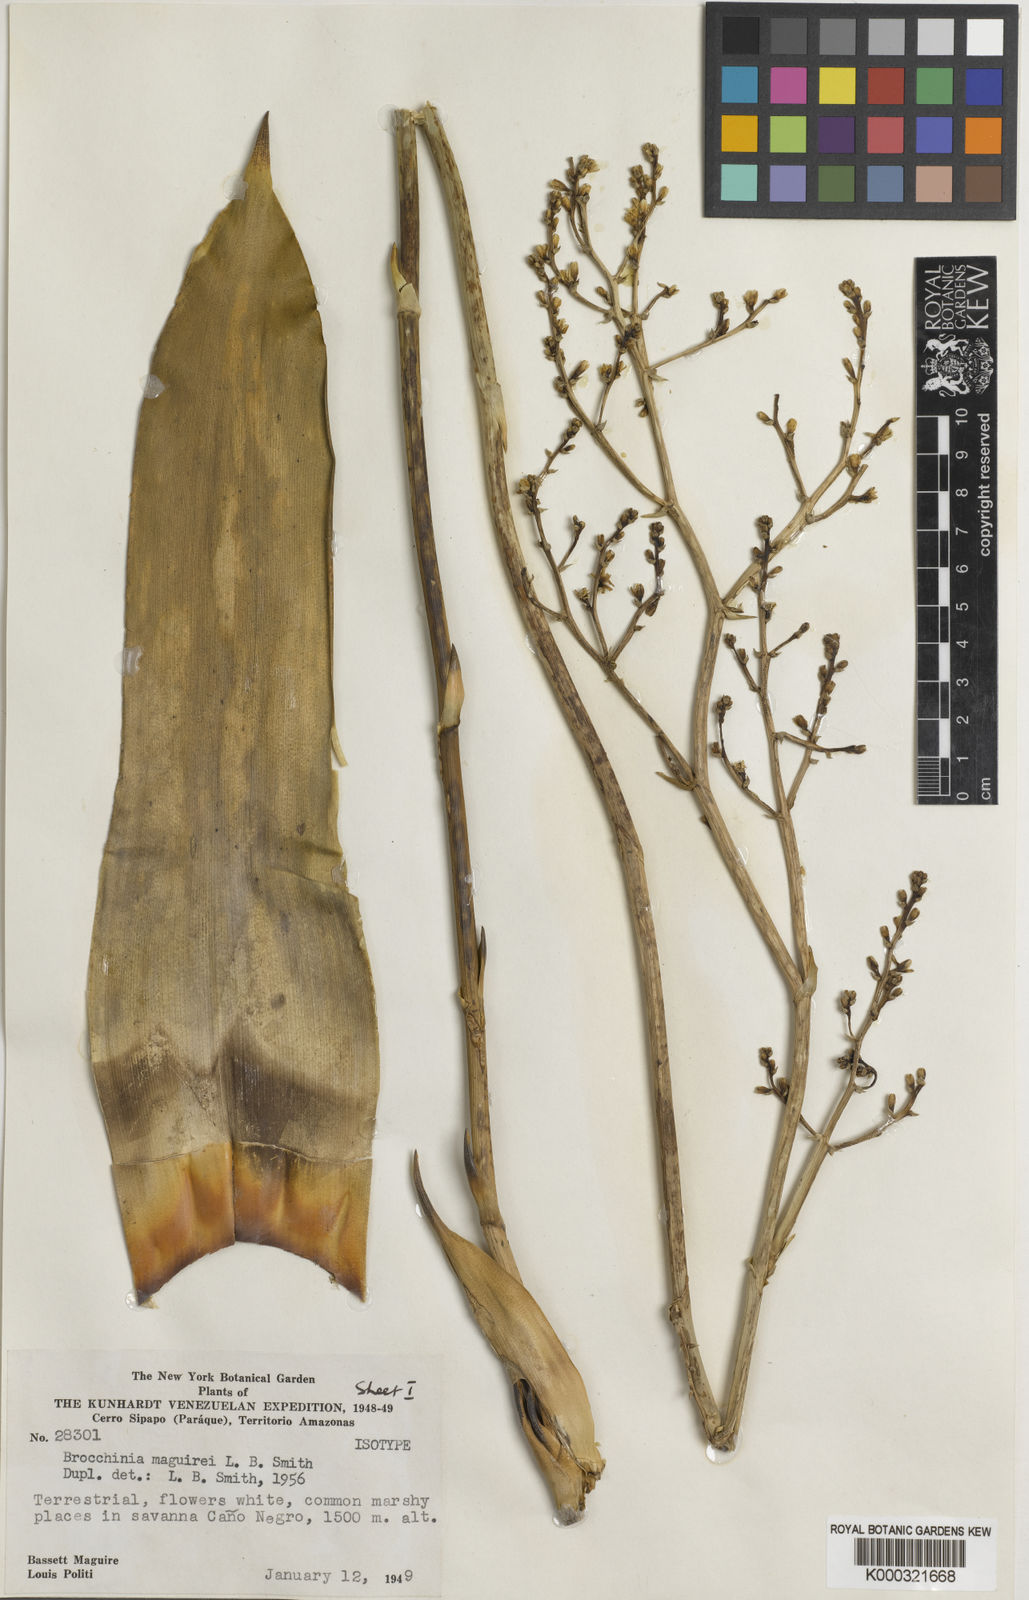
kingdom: Plantae
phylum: Tracheophyta
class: Liliopsida
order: Poales
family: Bromeliaceae
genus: Brocchinia
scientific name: Brocchinia maguirei
